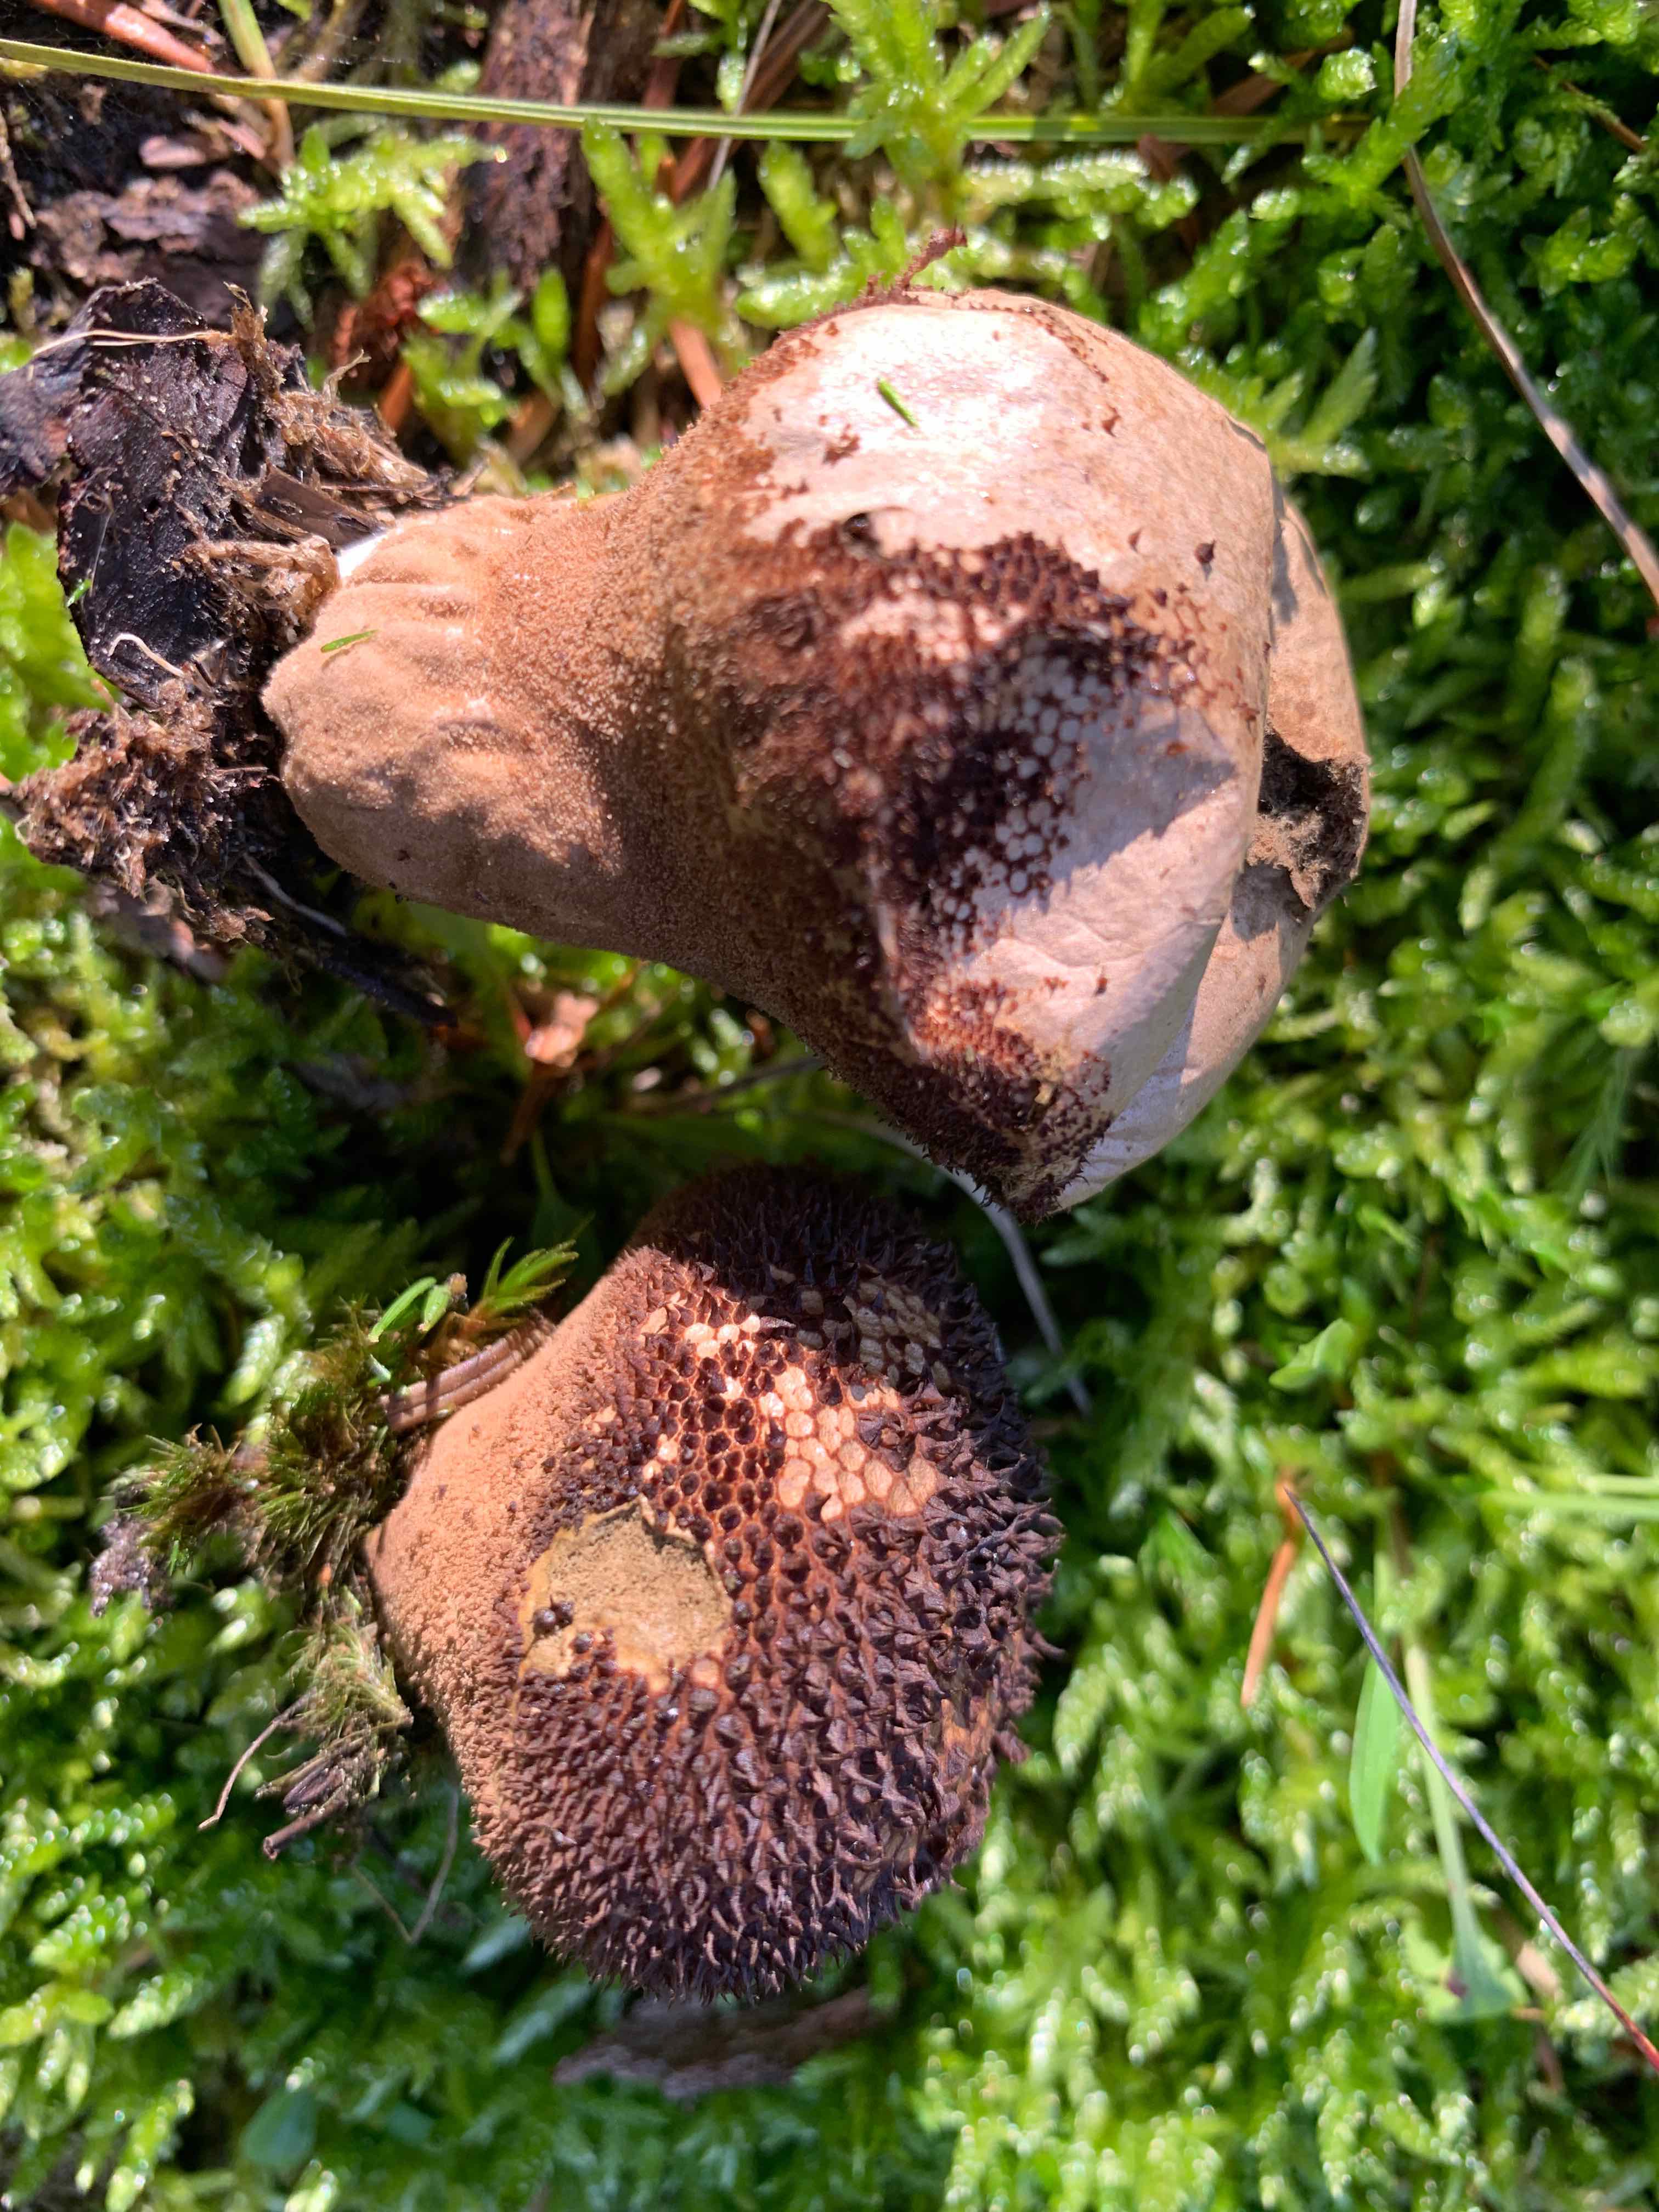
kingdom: Fungi
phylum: Basidiomycota
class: Agaricomycetes
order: Agaricales
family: Lycoperdaceae
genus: Lycoperdon
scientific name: Lycoperdon nigrescens
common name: sortagtig støvbold
